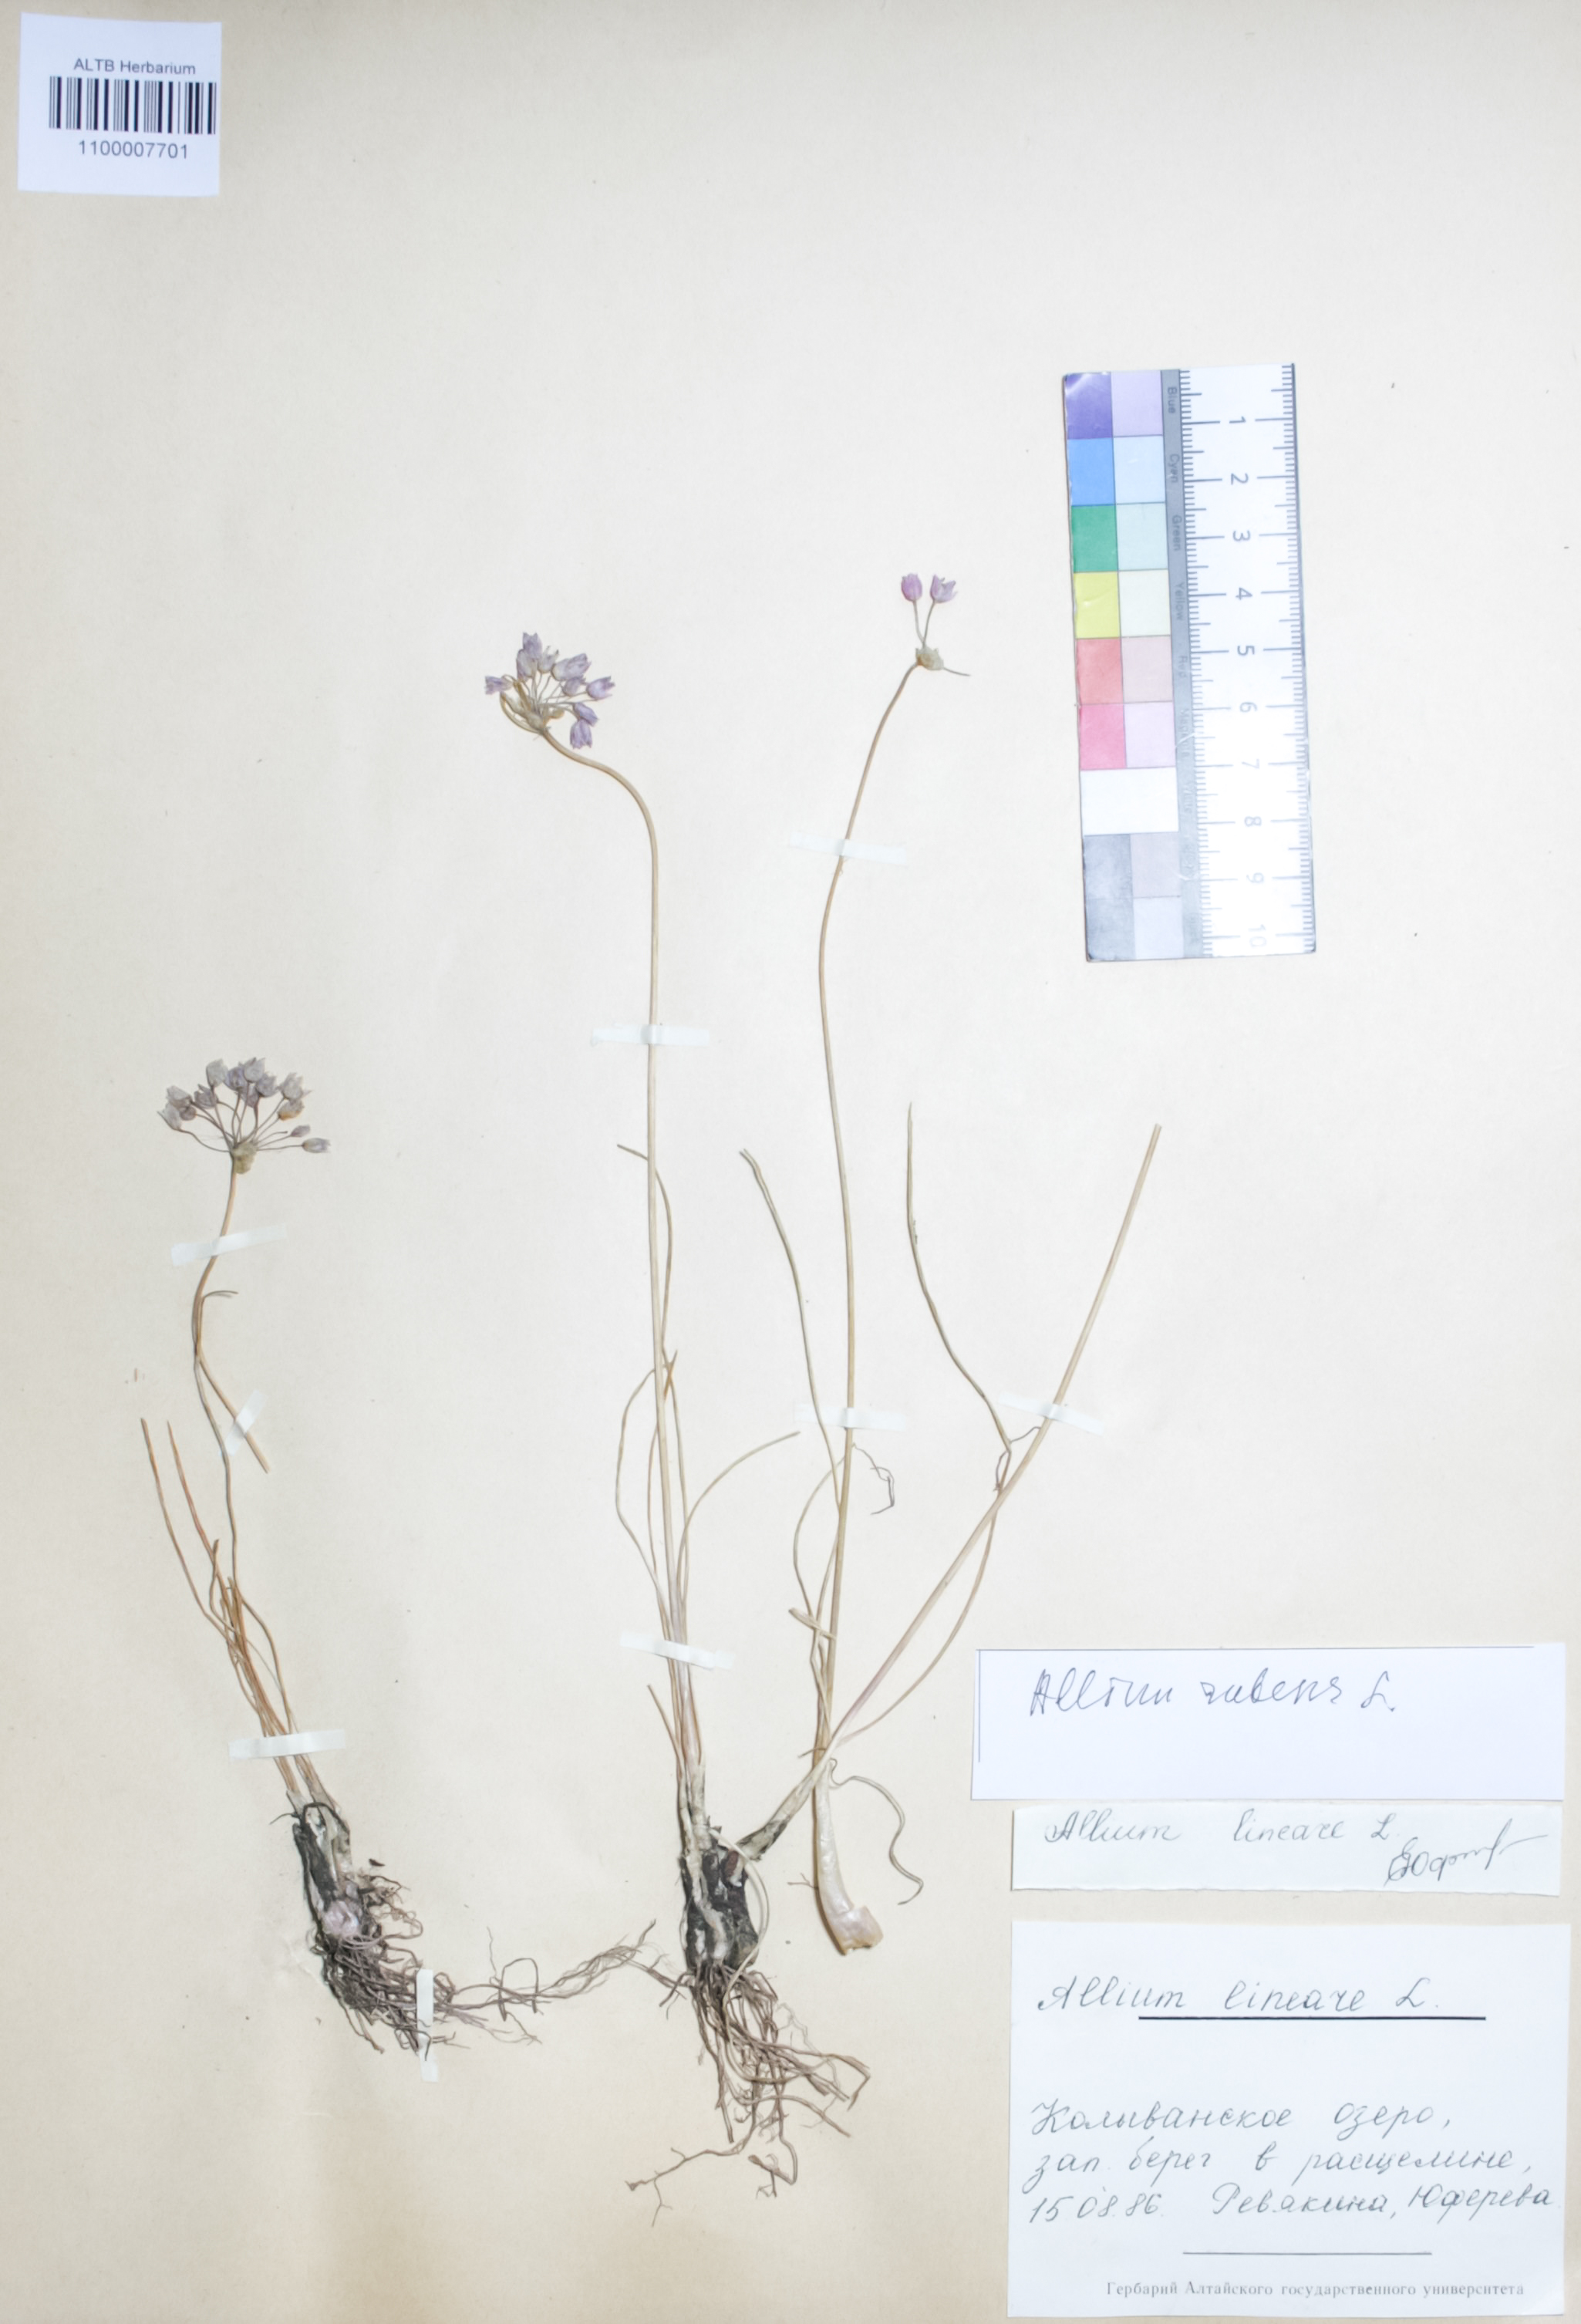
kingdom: Plantae
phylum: Tracheophyta
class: Liliopsida
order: Asparagales
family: Amaryllidaceae
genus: Allium
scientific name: Allium rubens
